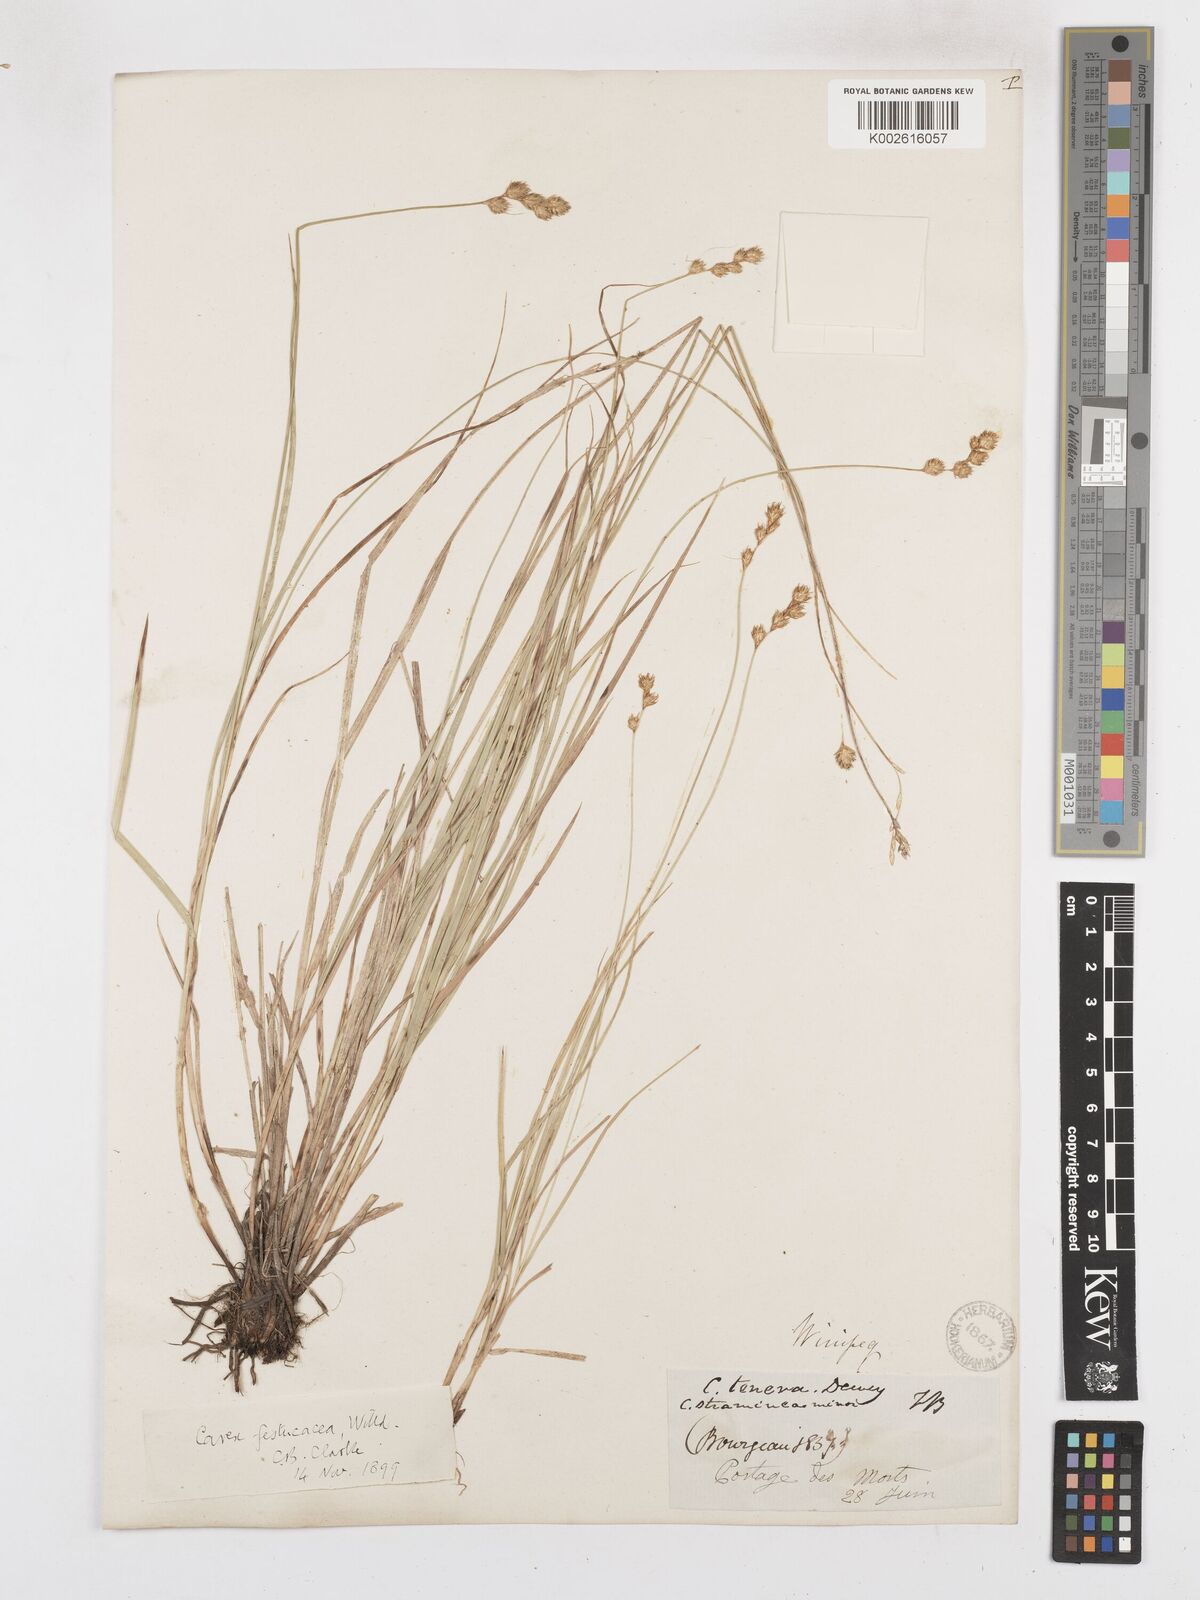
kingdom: Plantae
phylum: Tracheophyta
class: Liliopsida
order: Poales
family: Cyperaceae
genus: Carex
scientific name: Carex festucacea
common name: Fescue oval sedge
